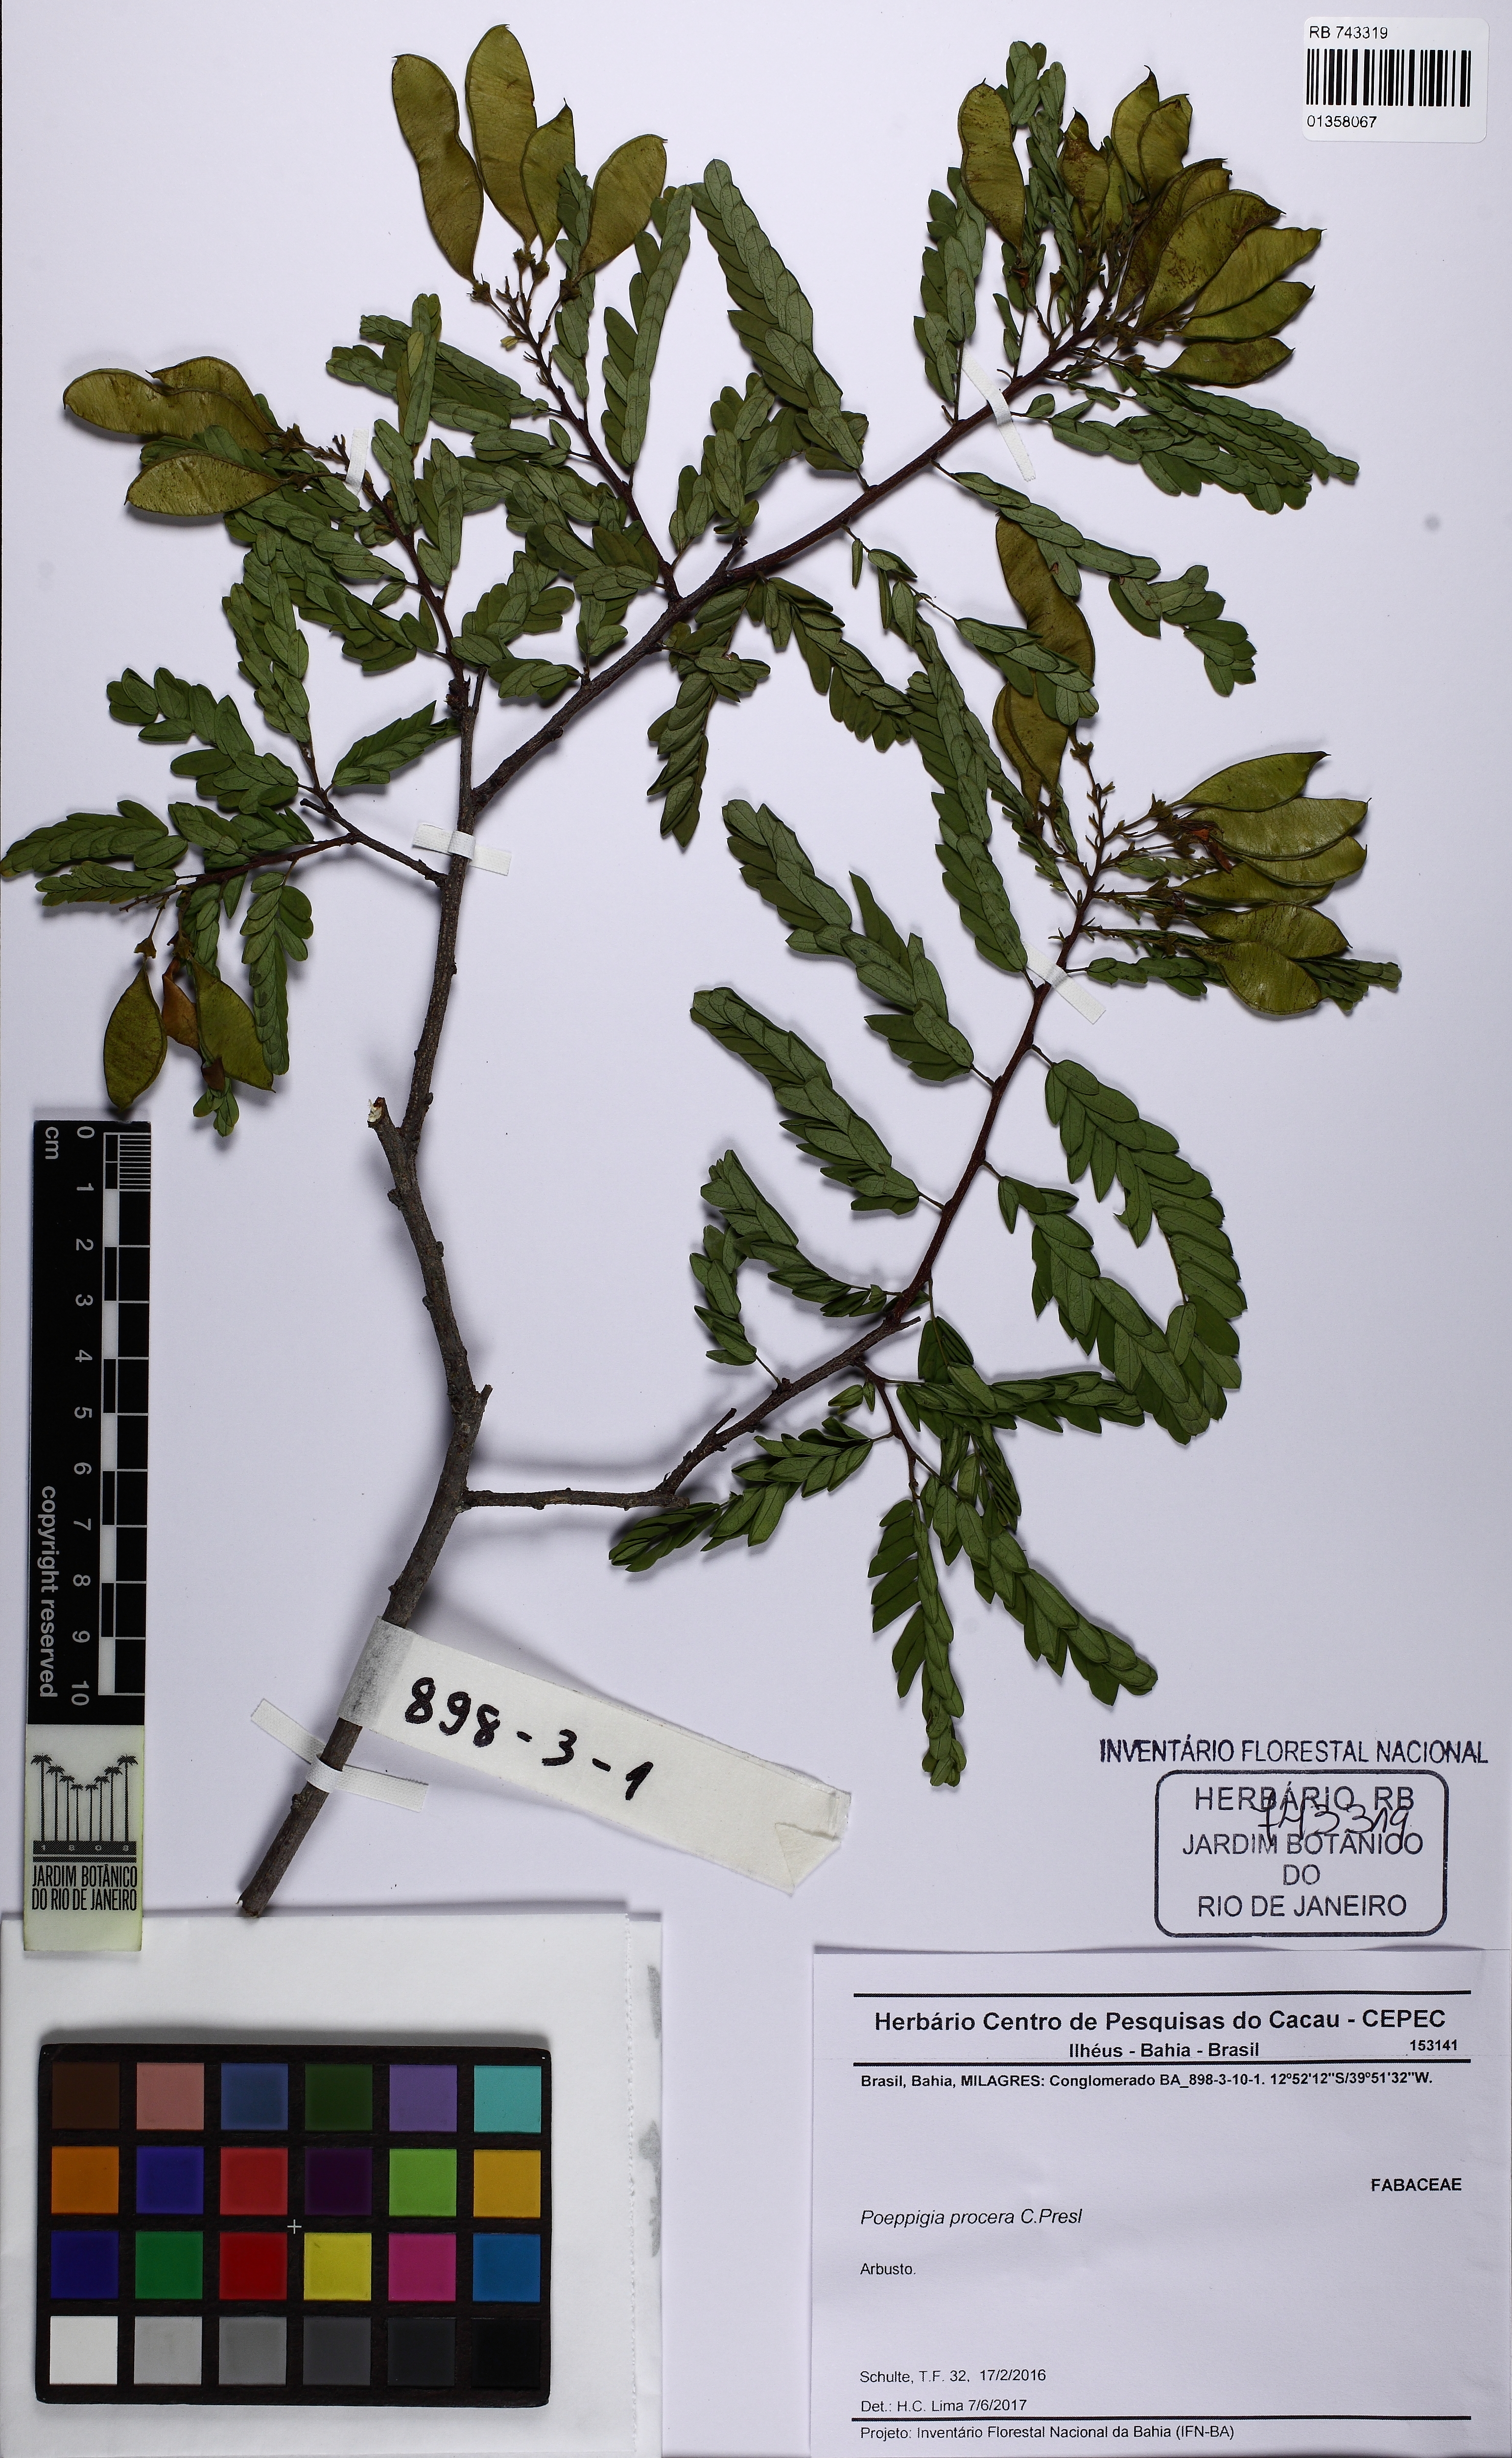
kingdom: Plantae
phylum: Tracheophyta
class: Magnoliopsida
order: Fabales
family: Fabaceae
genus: Poeppigia
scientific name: Poeppigia densiflora
